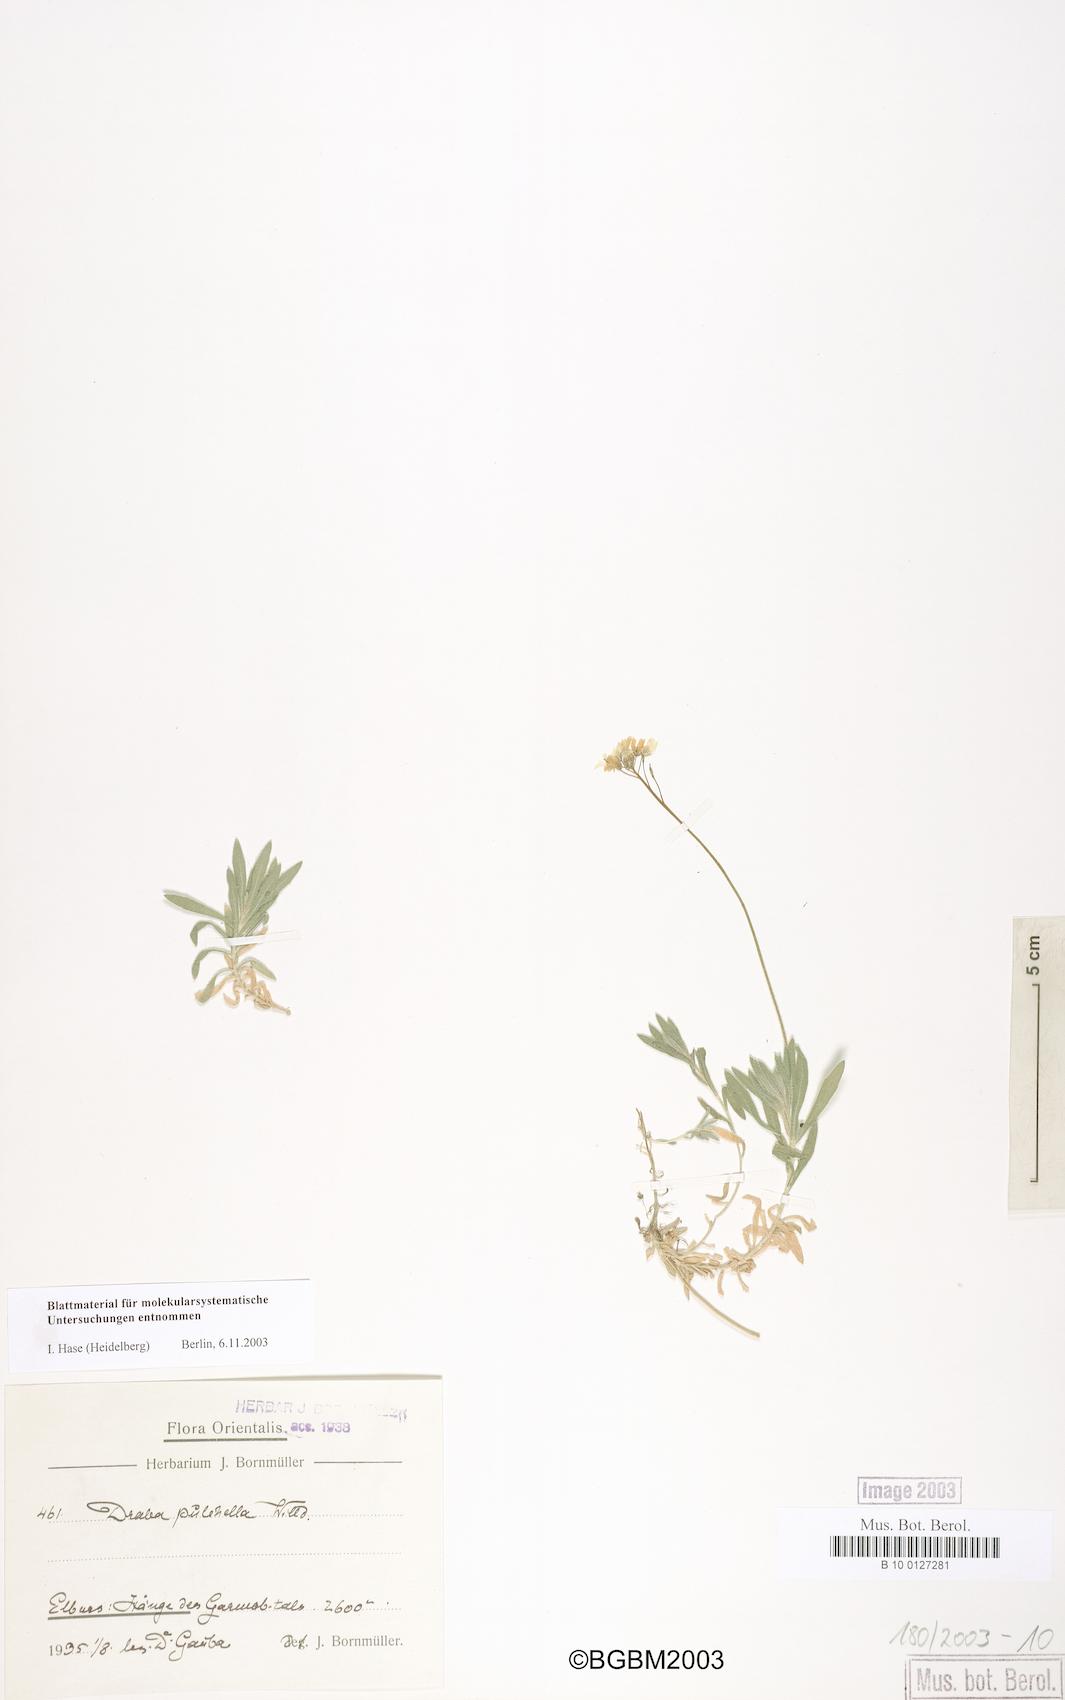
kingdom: Plantae
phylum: Tracheophyta
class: Magnoliopsida
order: Brassicales
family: Brassicaceae
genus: Draba
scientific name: Draba alpina
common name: Alpine draba
